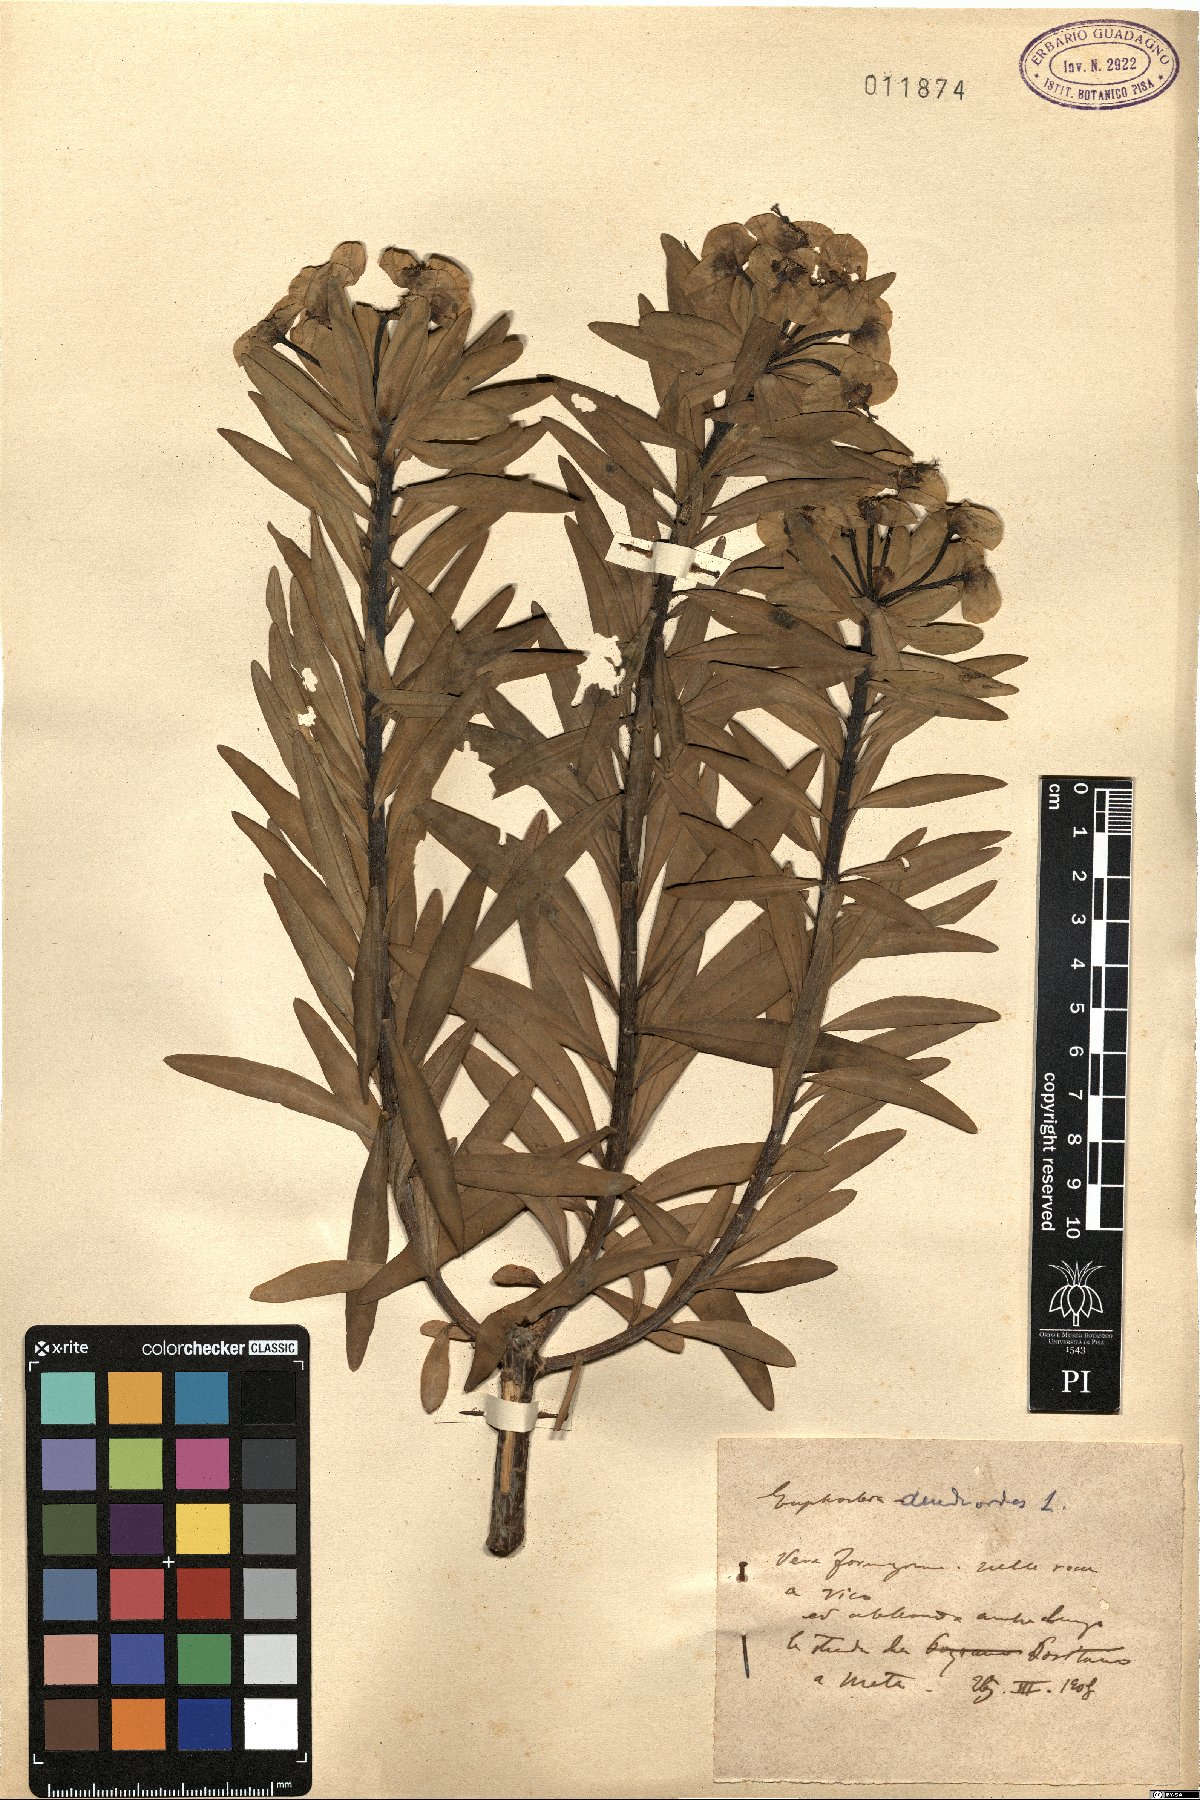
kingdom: Plantae
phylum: Tracheophyta
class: Magnoliopsida
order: Malpighiales
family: Euphorbiaceae
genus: Euphorbia
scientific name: Euphorbia dendroides
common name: Tree spurge
